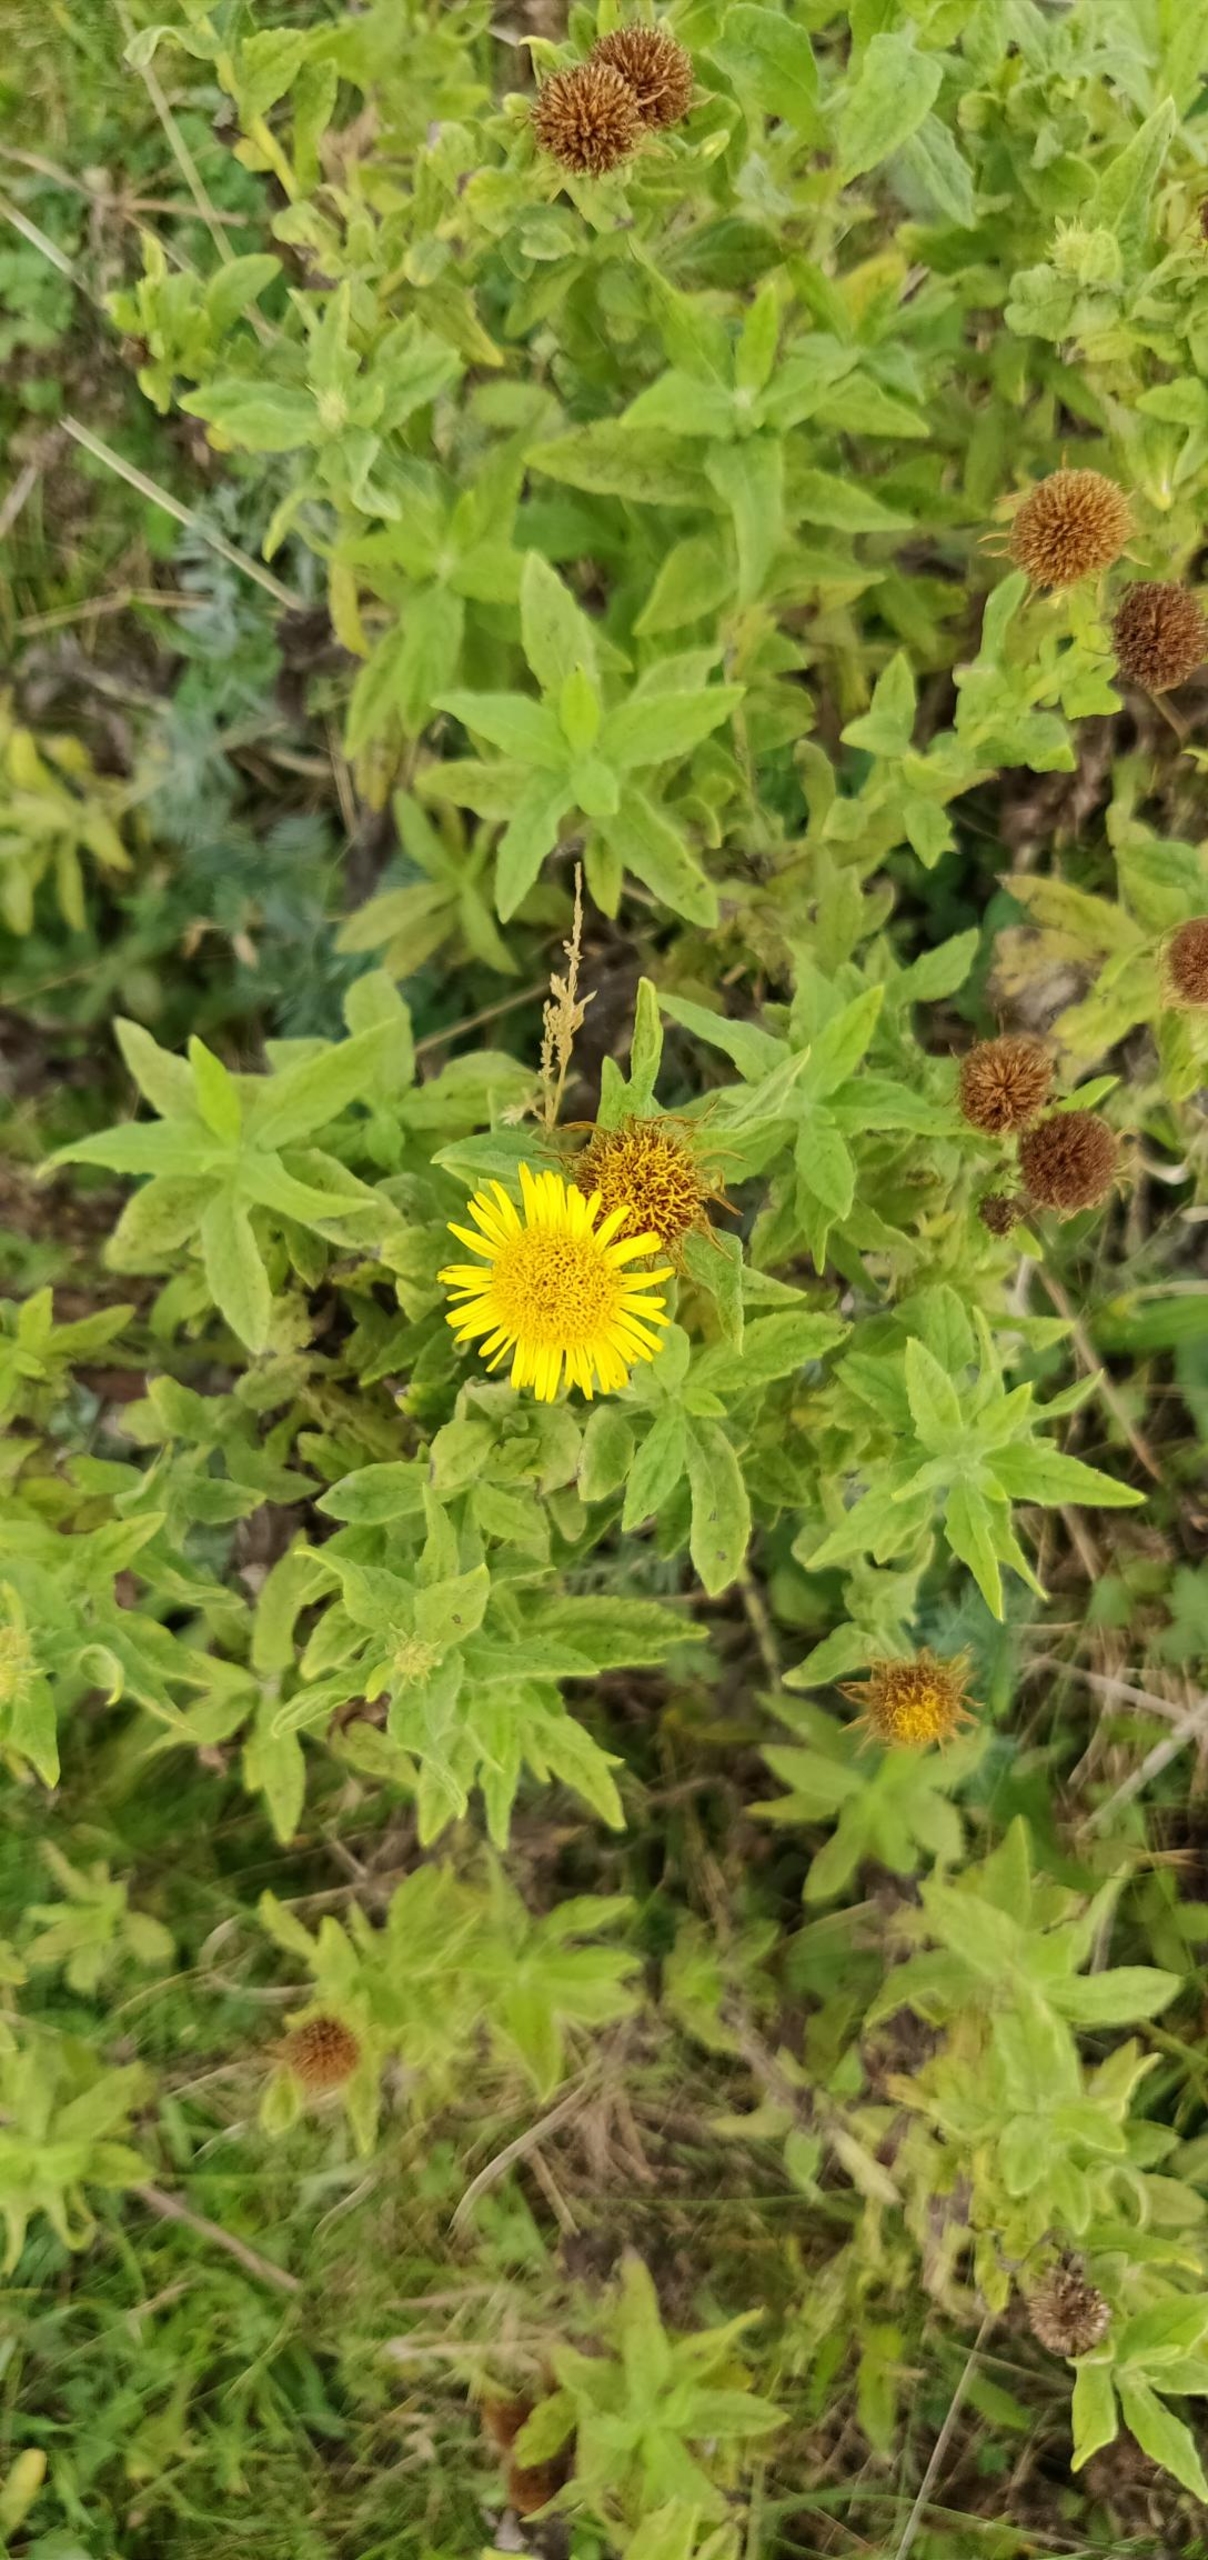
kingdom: Plantae
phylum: Tracheophyta
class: Magnoliopsida
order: Asterales
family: Asteraceae
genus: Pulicaria
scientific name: Pulicaria dysenterica
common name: Strand-loppeurt
